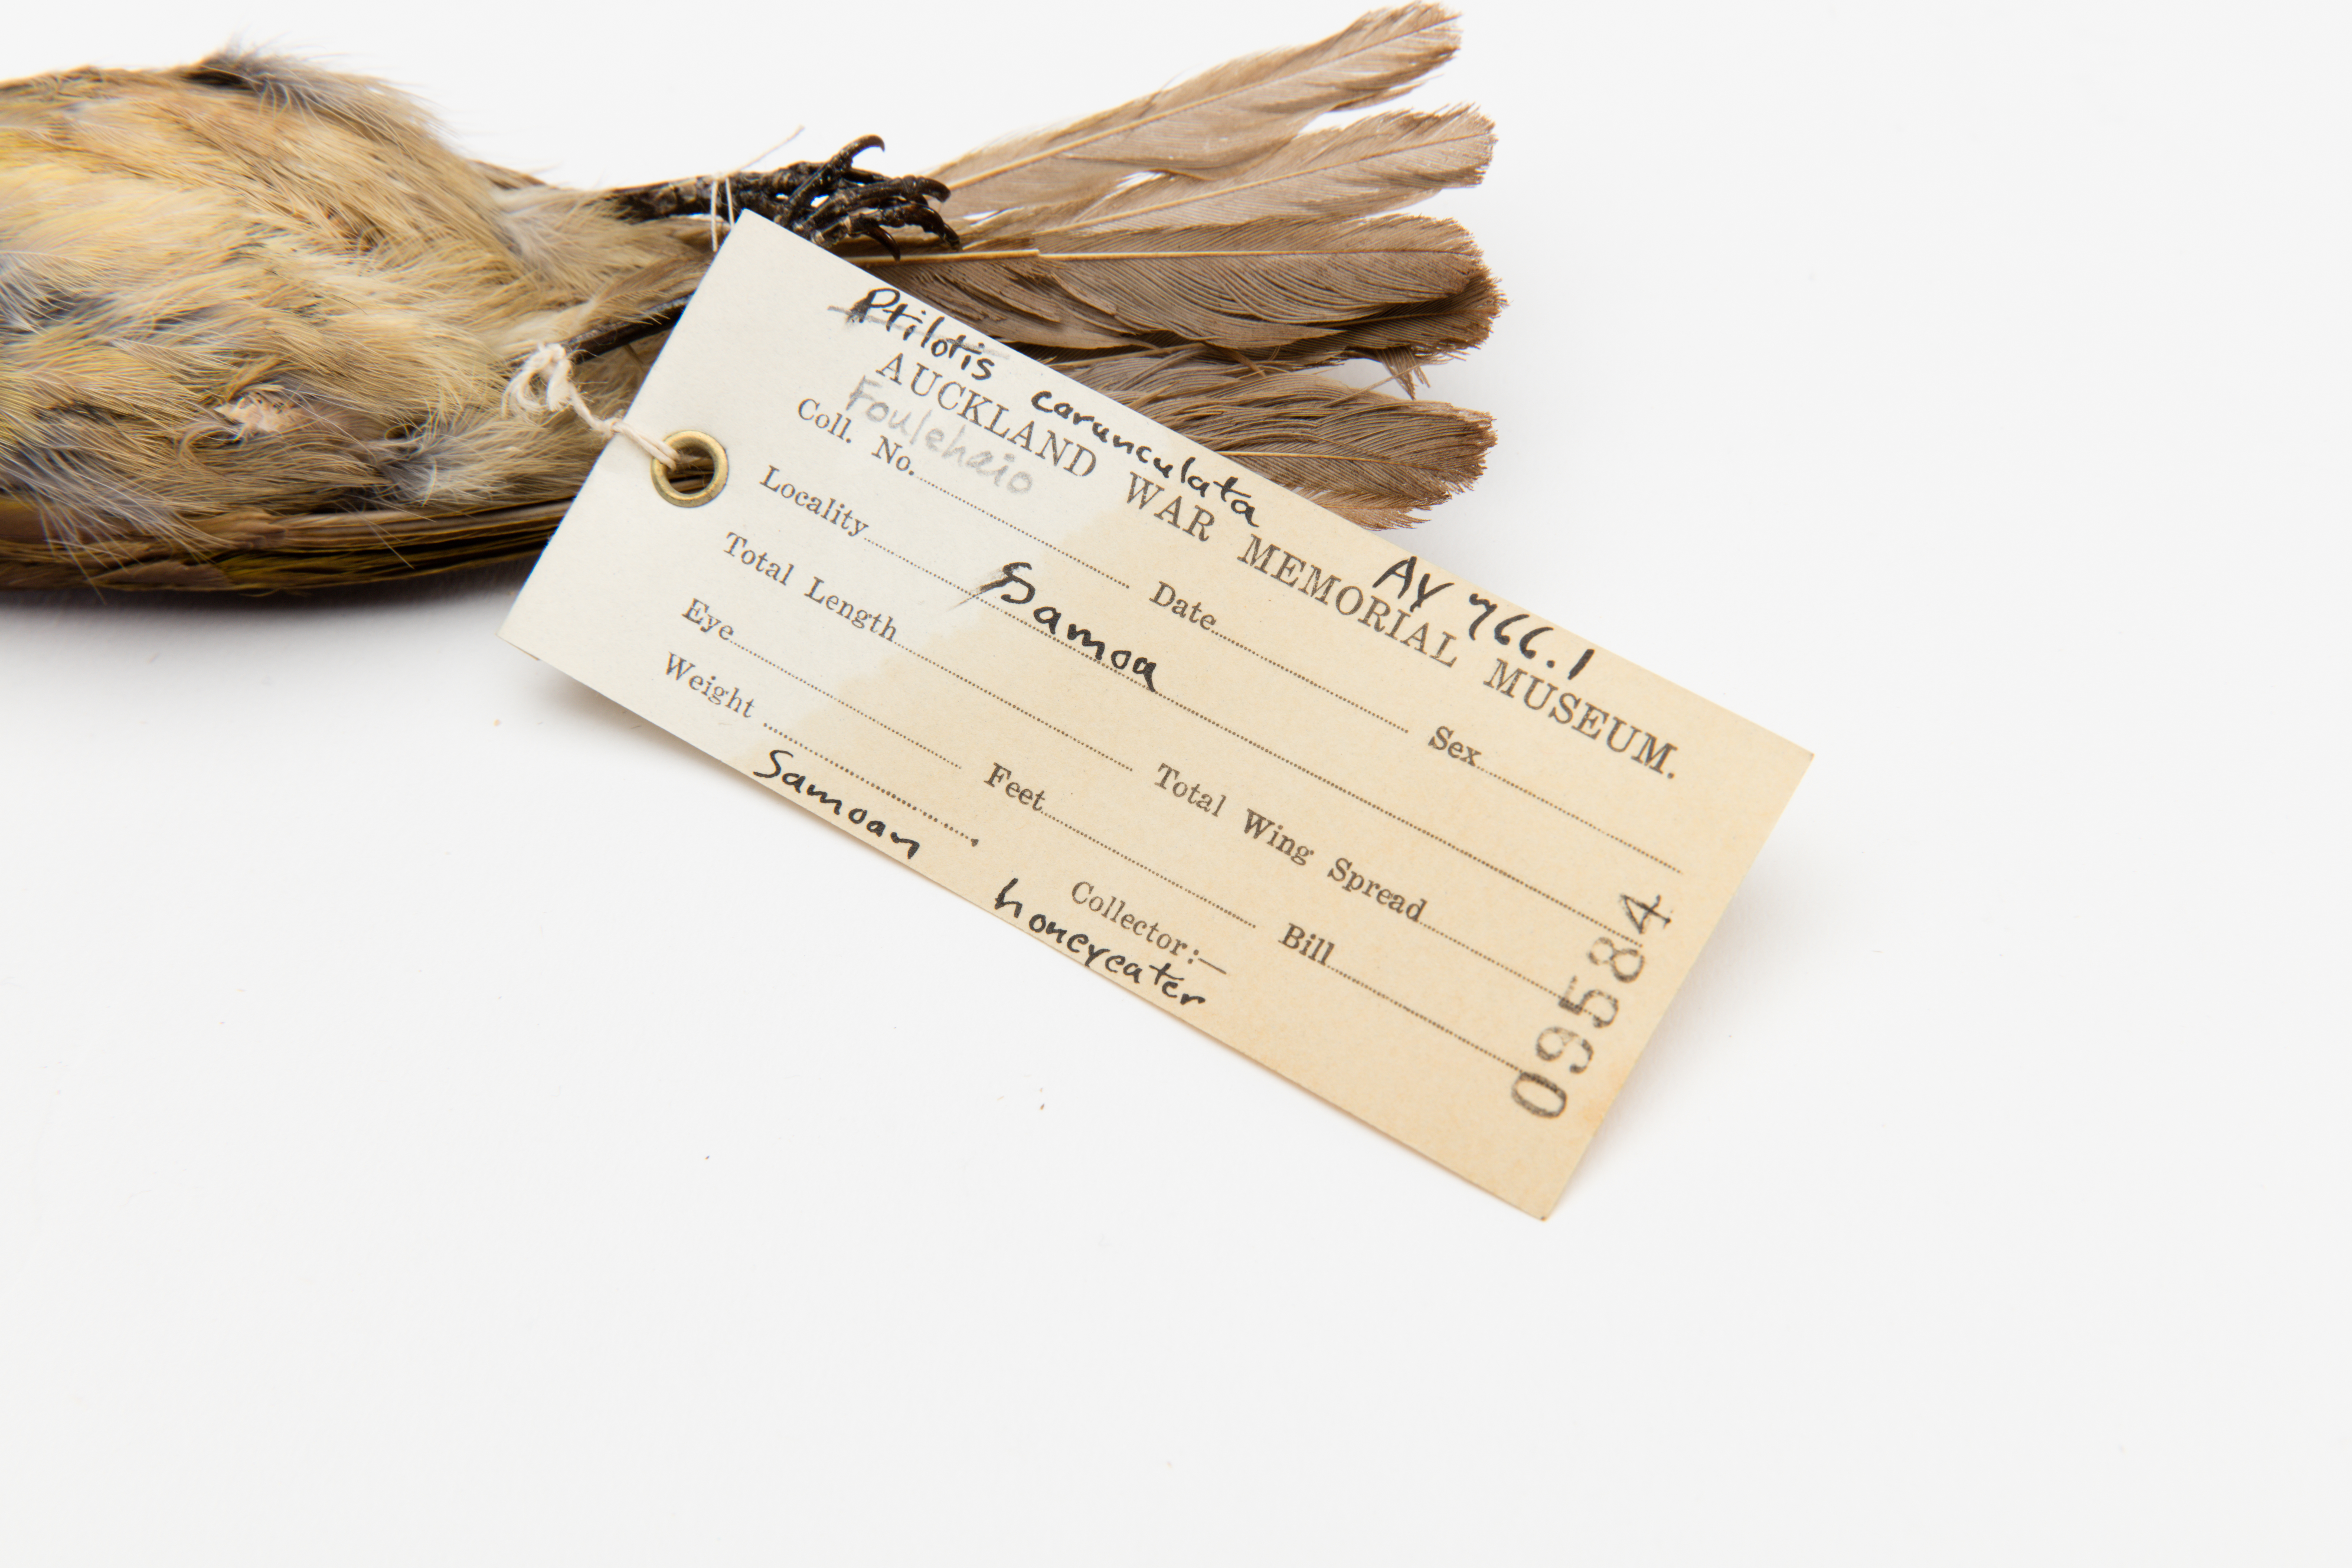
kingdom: Animalia
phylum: Chordata
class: Aves
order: Passeriformes
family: Meliphagidae
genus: Foulehaio
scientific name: Foulehaio carunculatus
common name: Eastern wattled-honeyeater
